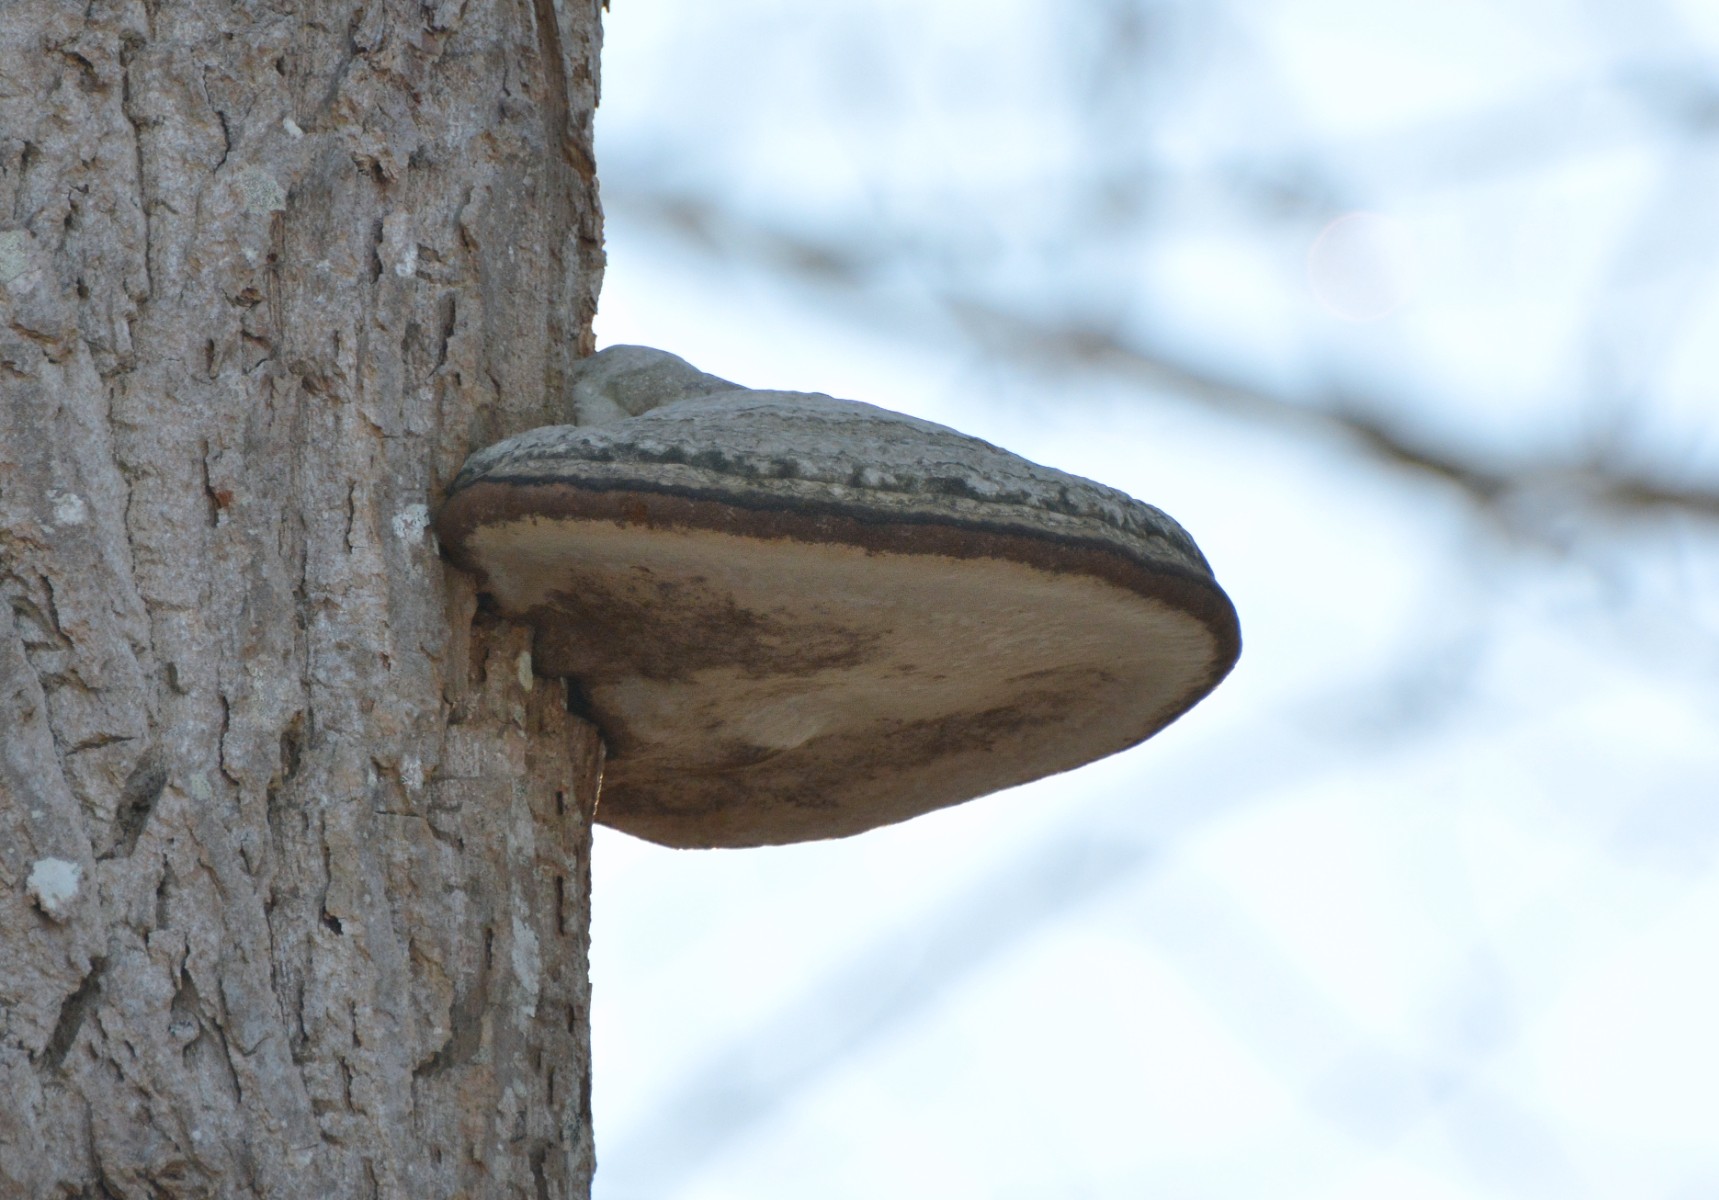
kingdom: Fungi
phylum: Basidiomycota
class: Agaricomycetes
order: Hymenochaetales
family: Hymenochaetaceae
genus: Phellinus
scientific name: Phellinus populicola
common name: poppel-ildporesvamp
